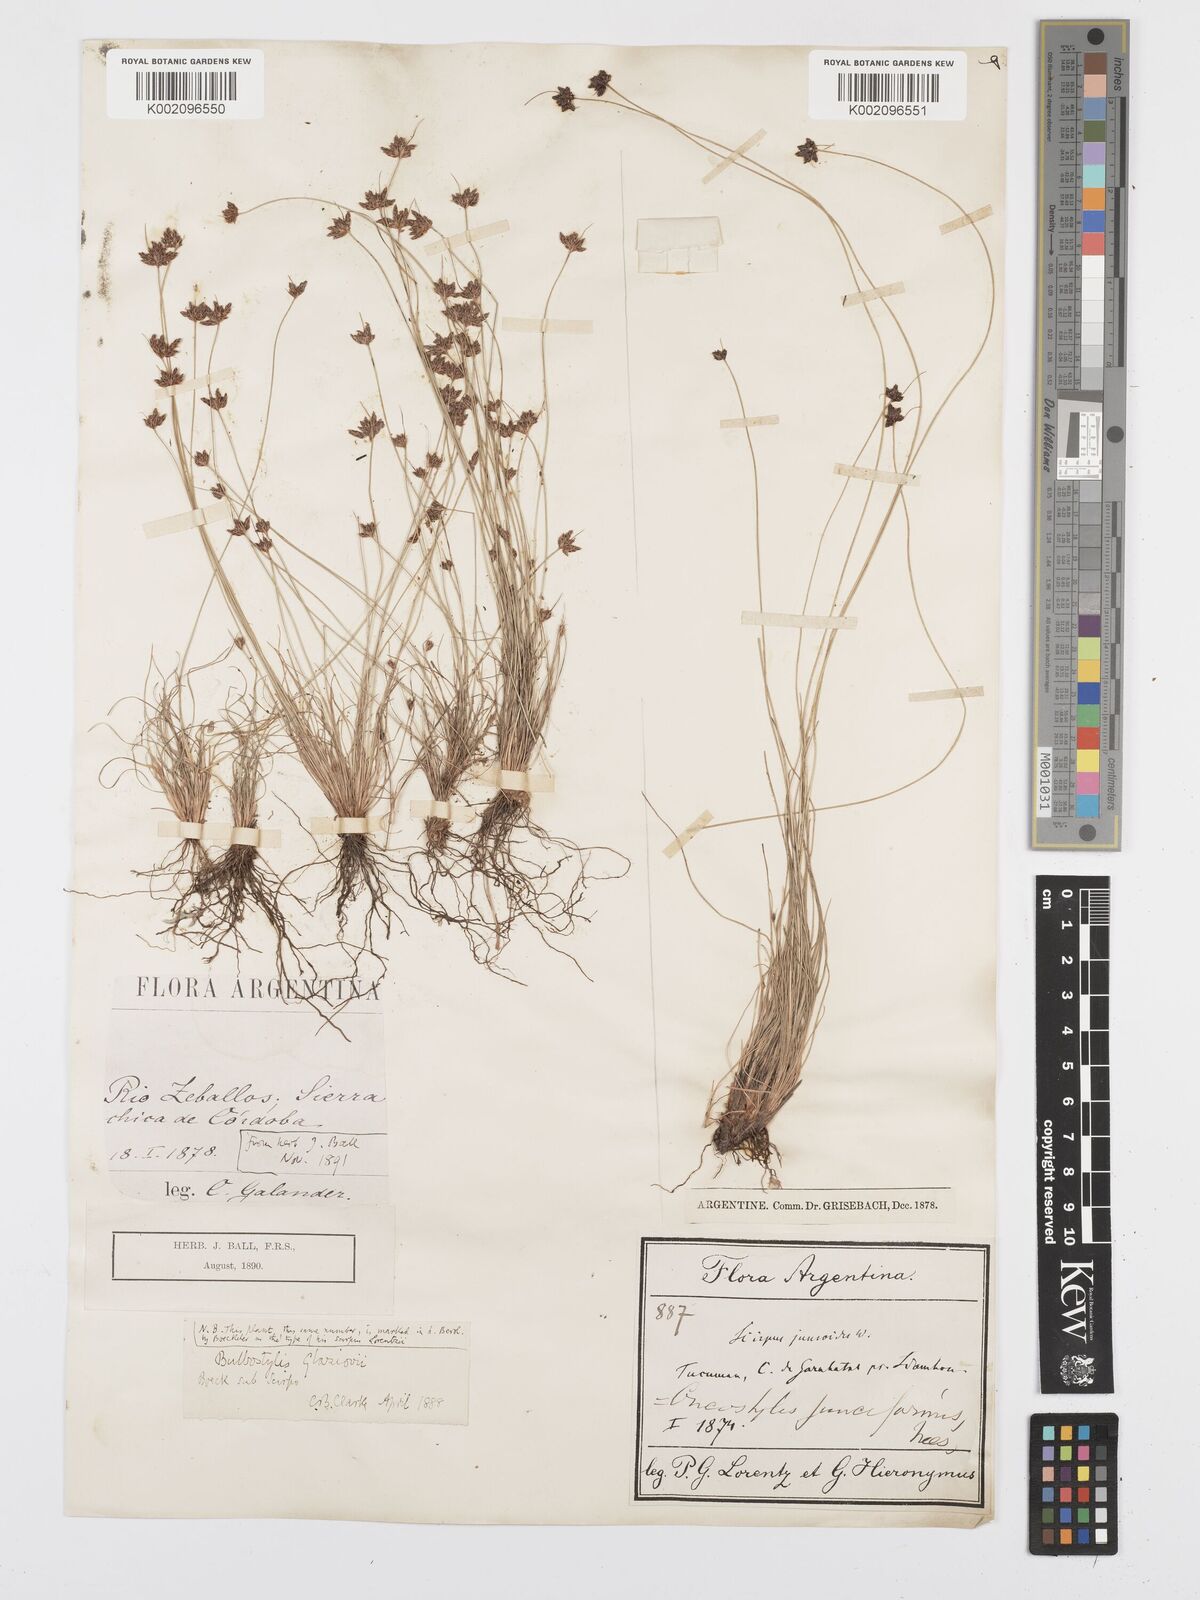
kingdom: Plantae
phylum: Tracheophyta
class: Liliopsida
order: Poales
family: Cyperaceae
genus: Bulbostylis
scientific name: Bulbostylis juncoides
